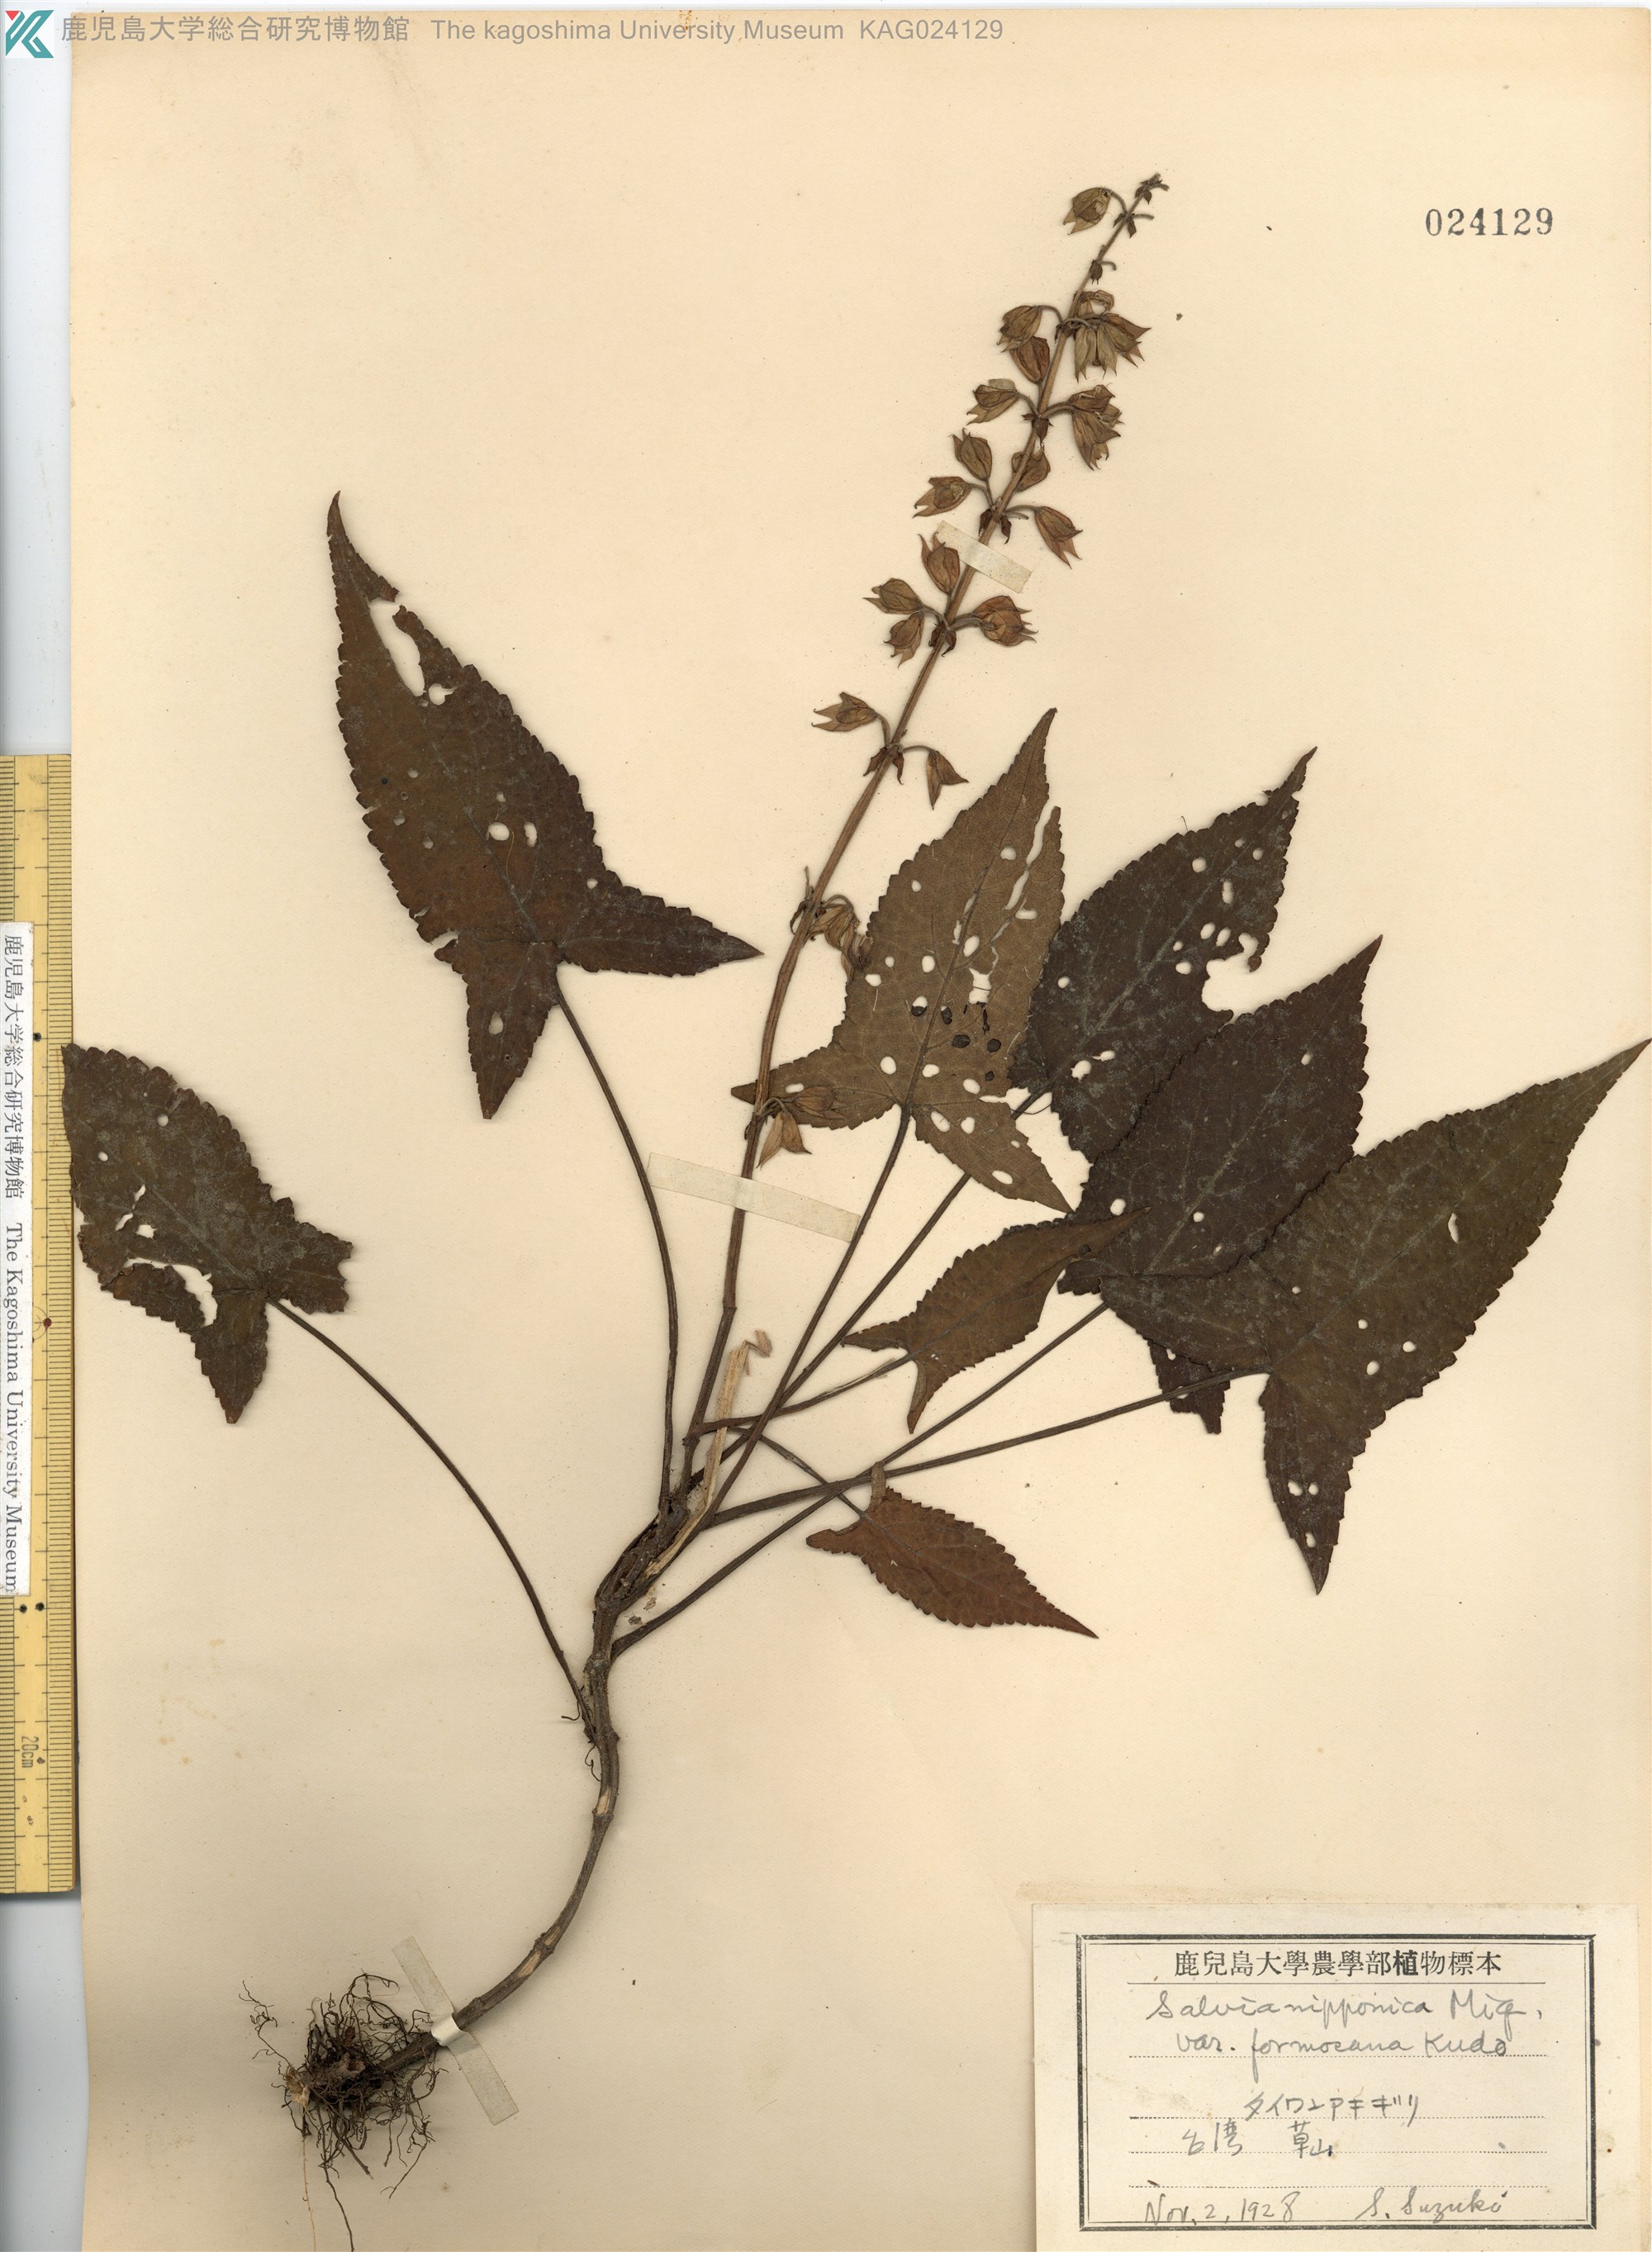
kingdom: Plantae
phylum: Tracheophyta
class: Magnoliopsida
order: Lamiales
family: Lamiaceae
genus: Salvia
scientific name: Salvia nipponica
